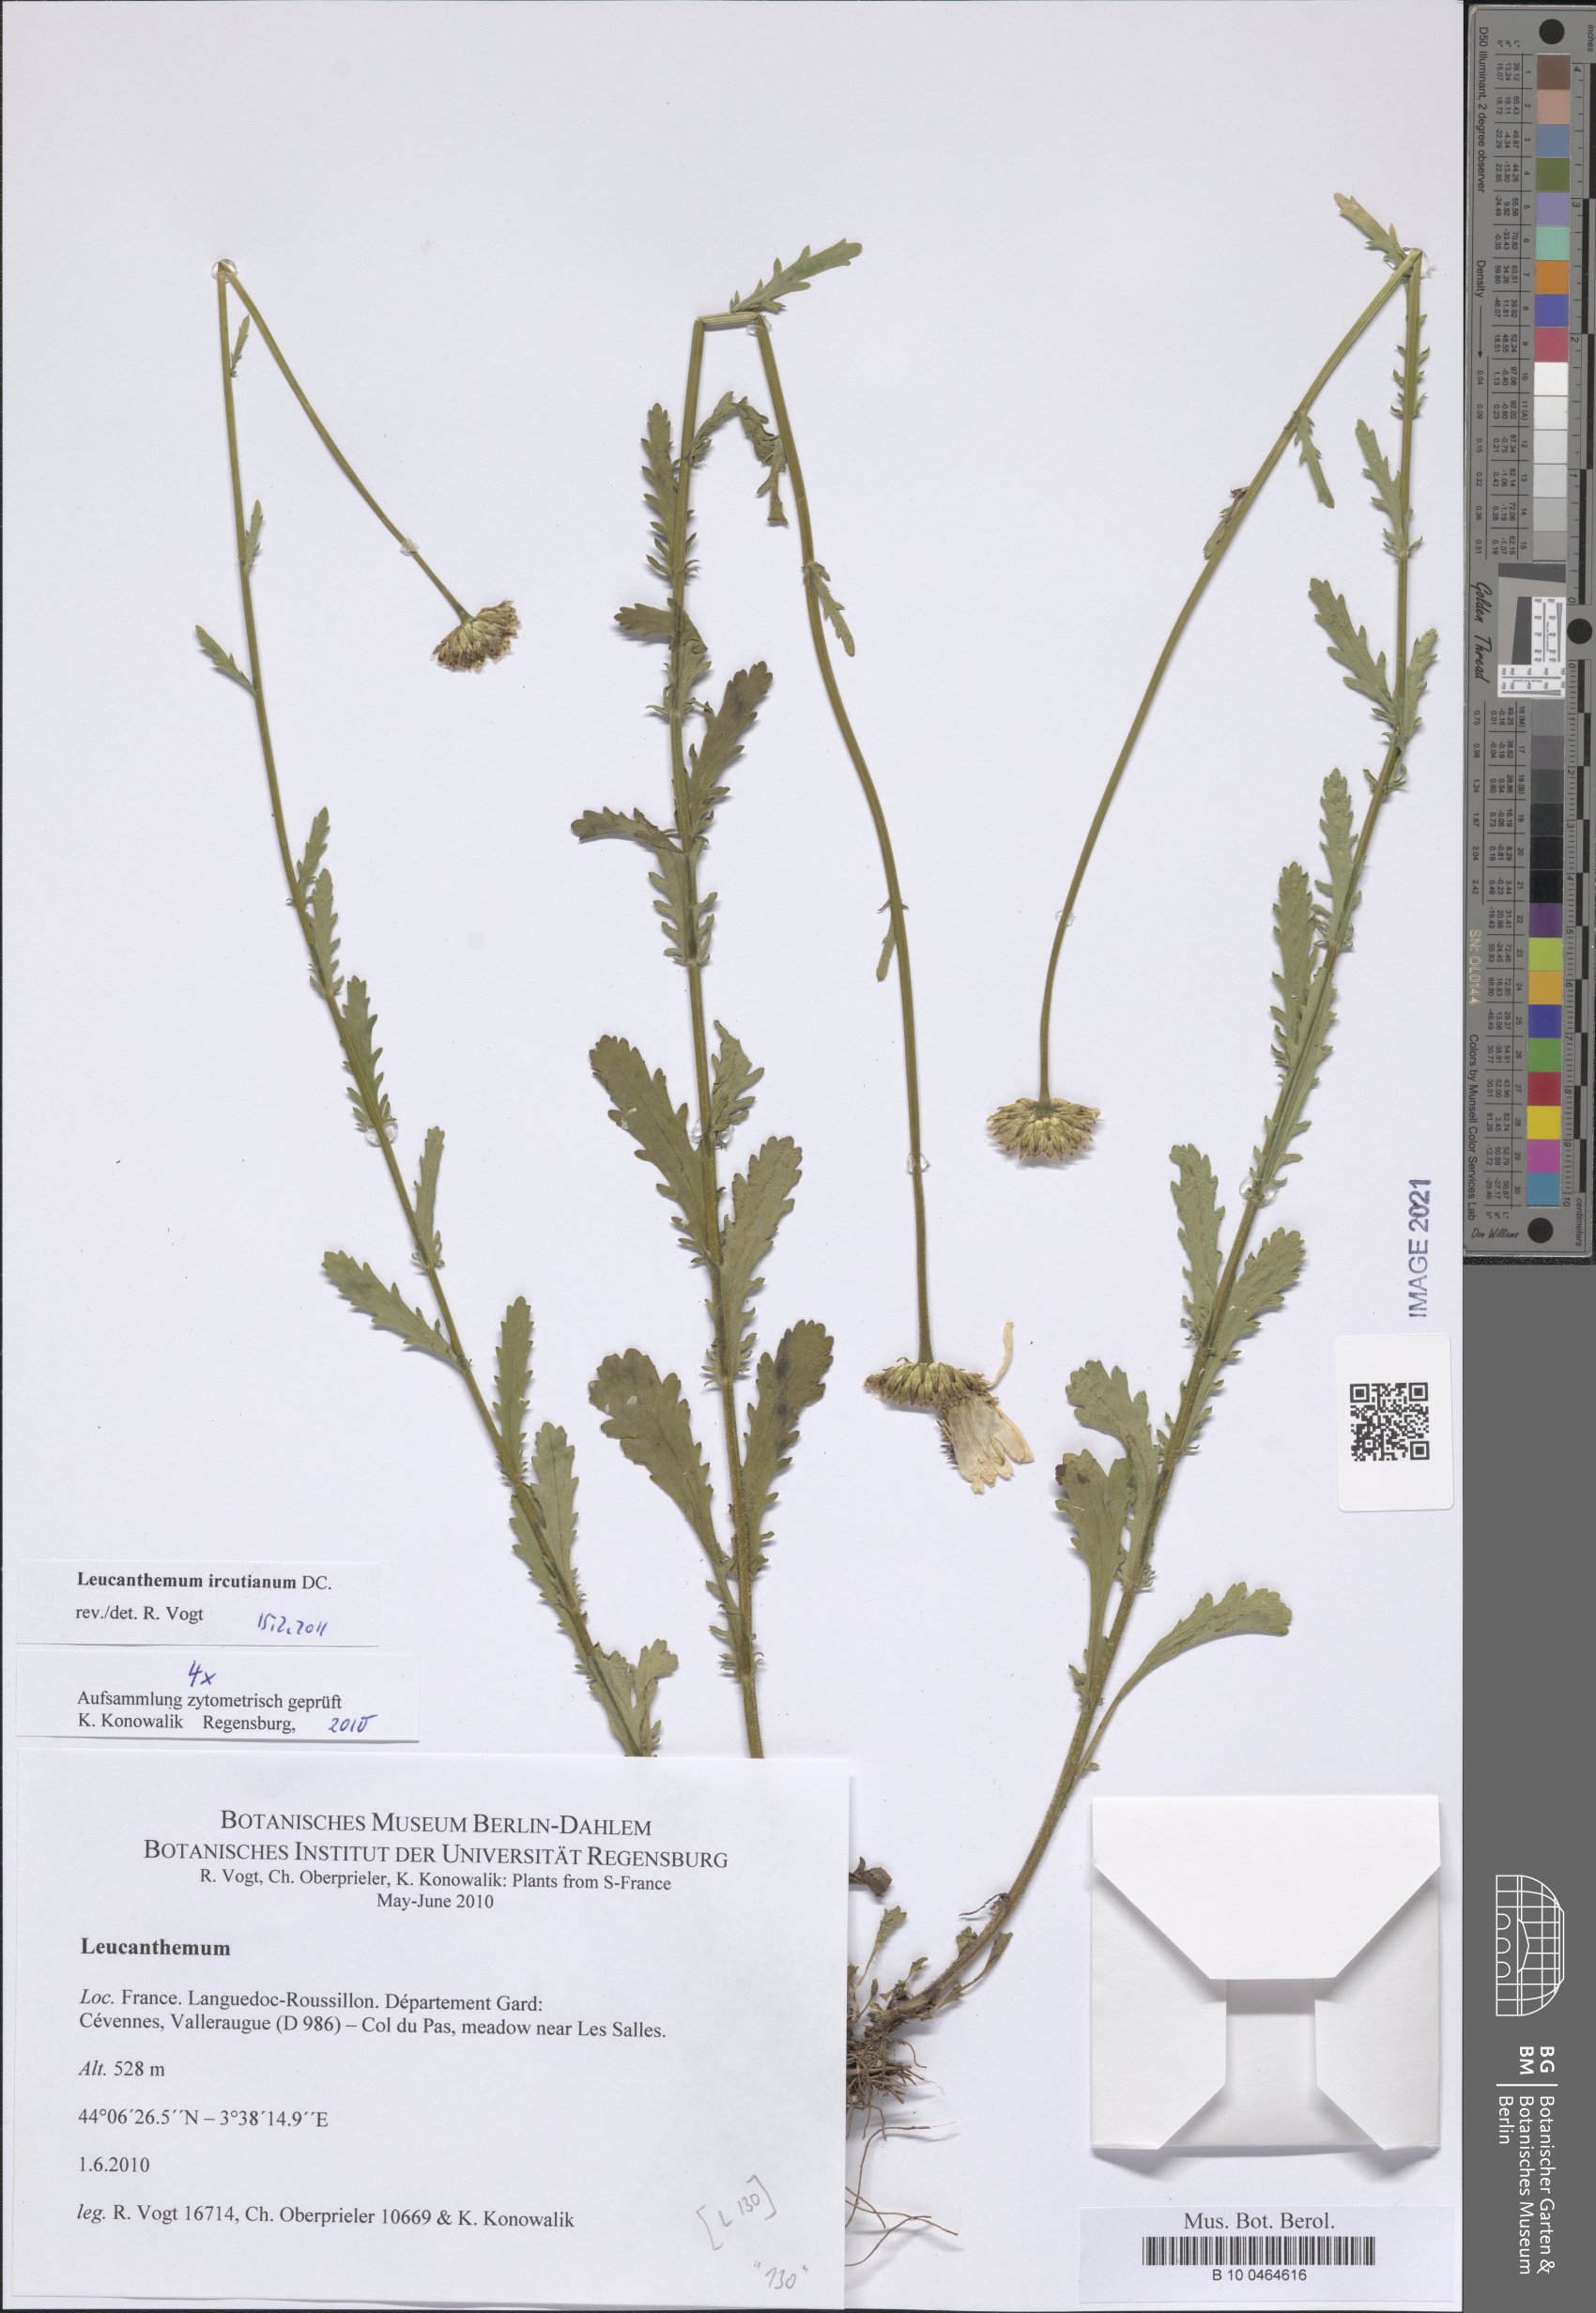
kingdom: Plantae
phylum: Tracheophyta
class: Magnoliopsida
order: Asterales
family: Asteraceae
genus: Leucanthemum
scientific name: Leucanthemum ircutianum
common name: Daisy
